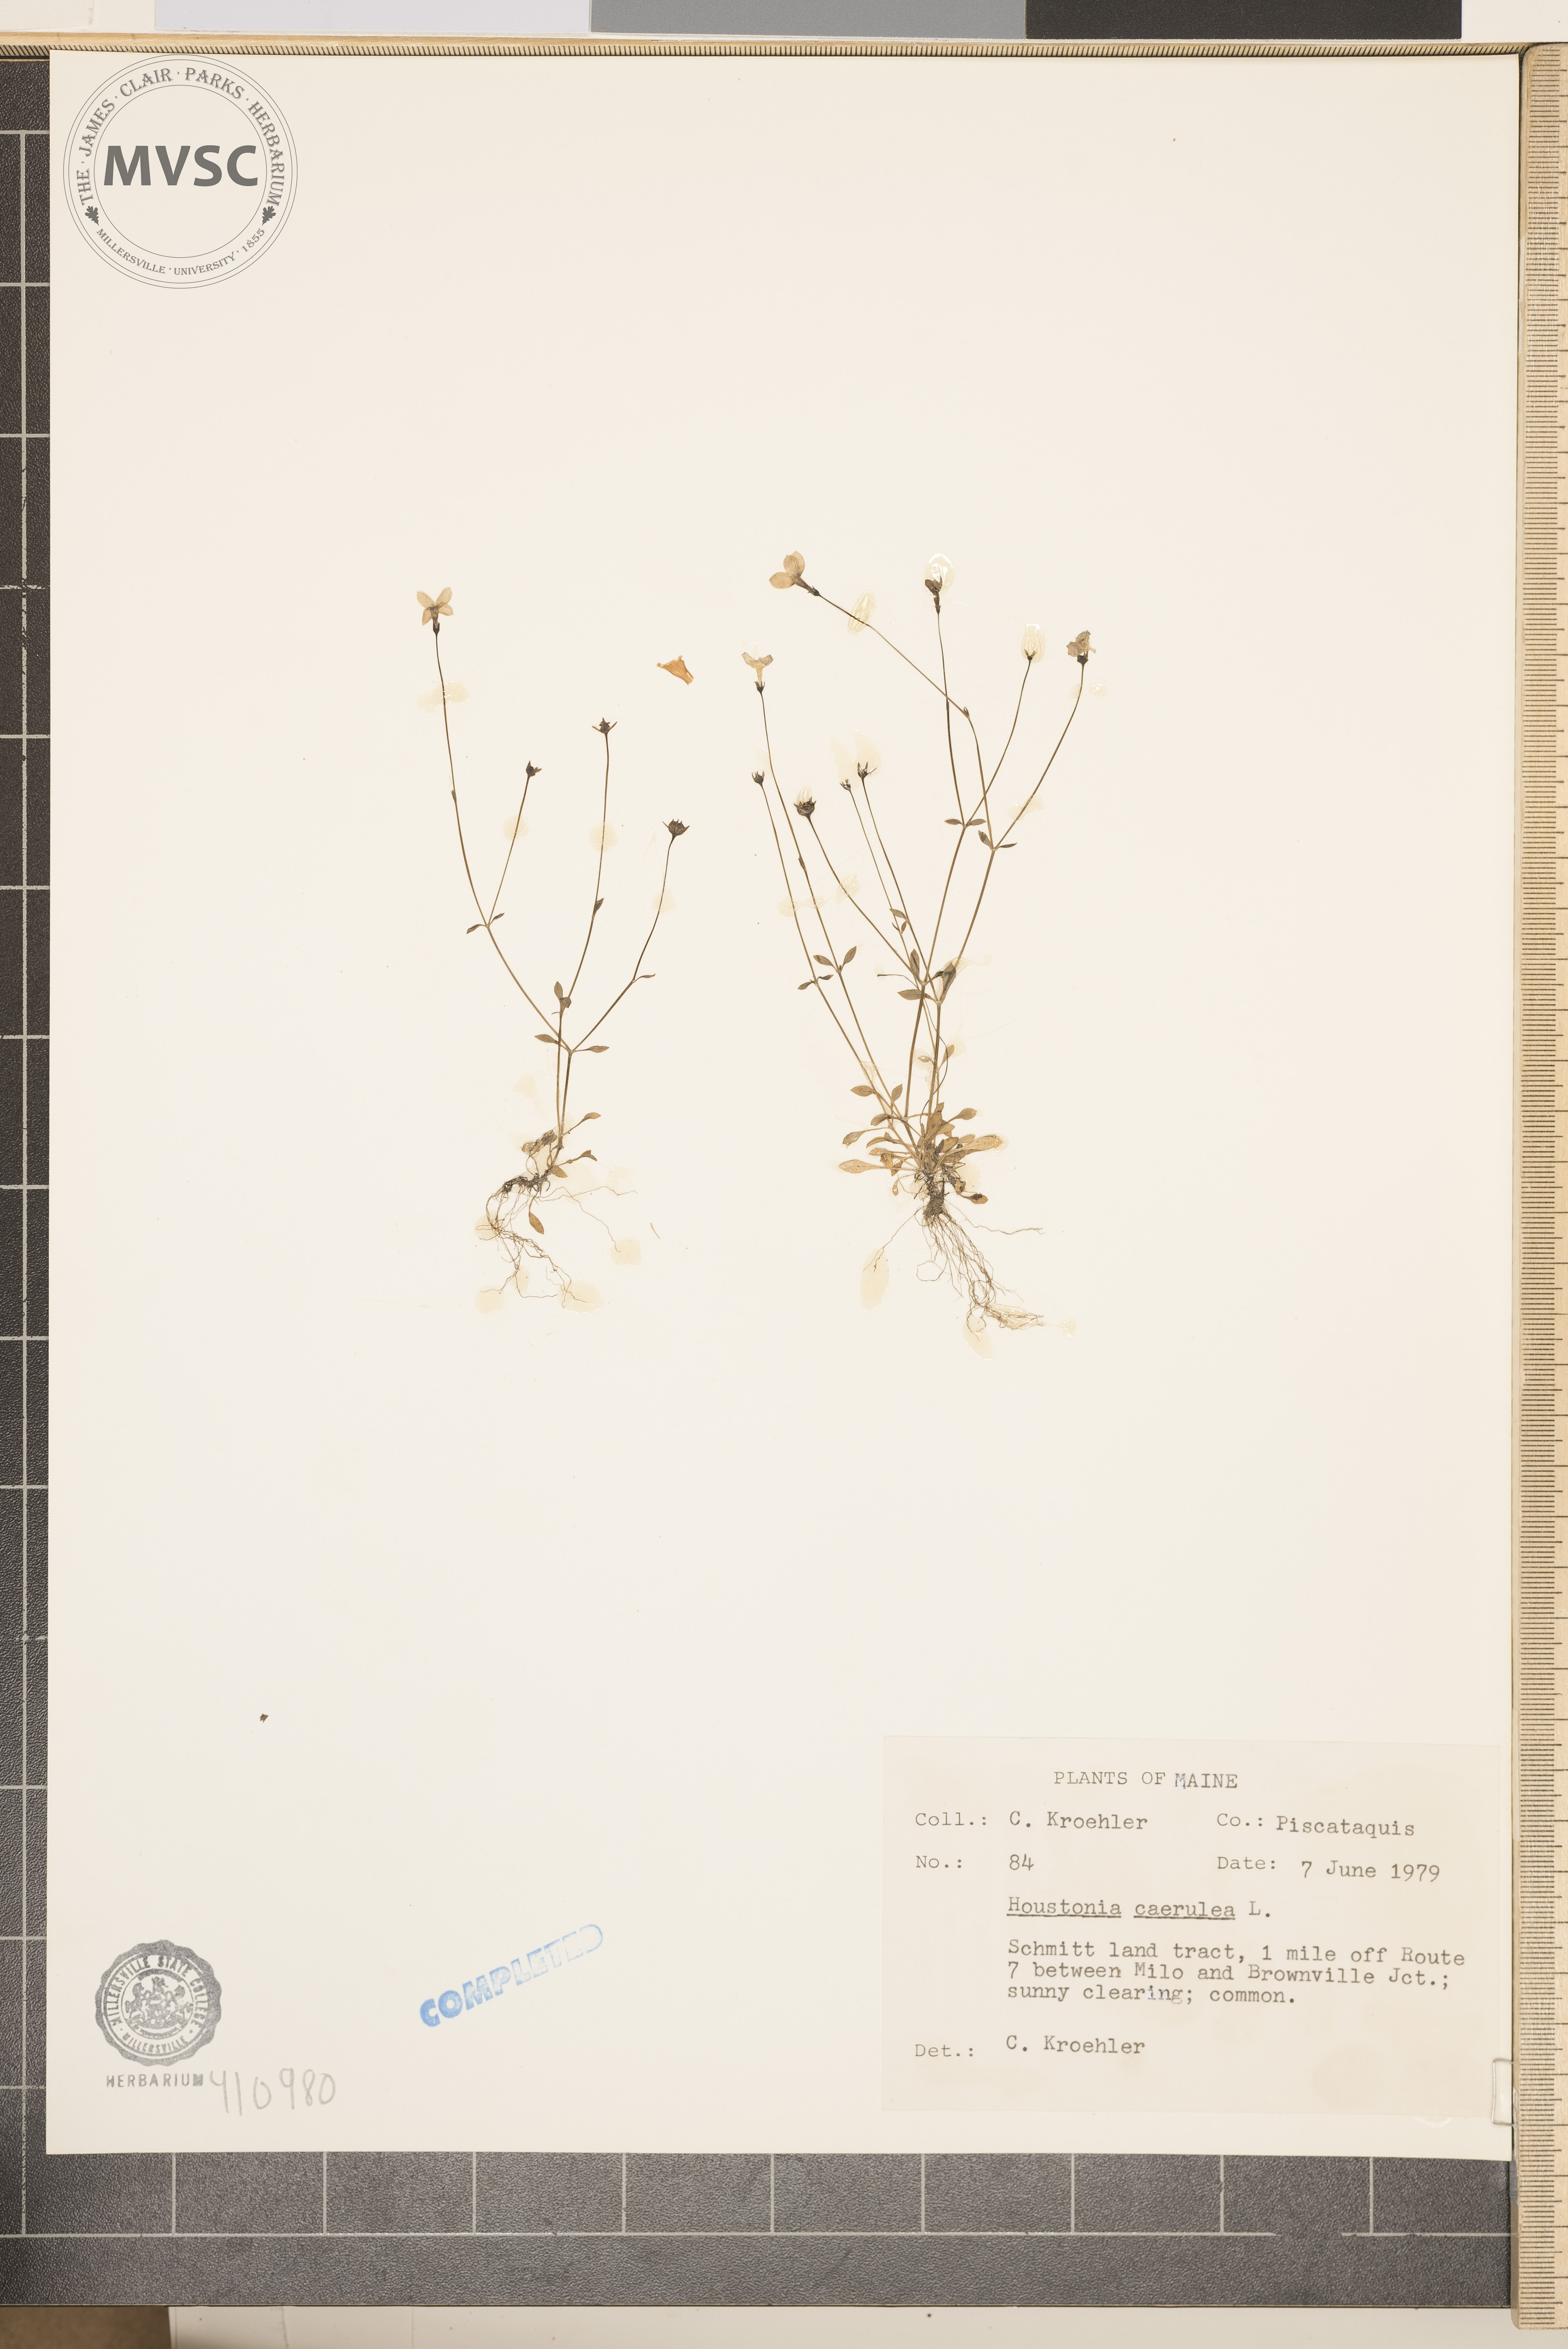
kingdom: Plantae
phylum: Tracheophyta
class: Magnoliopsida
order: Gentianales
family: Rubiaceae
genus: Houstonia
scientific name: Houstonia caerulea
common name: Bluets
